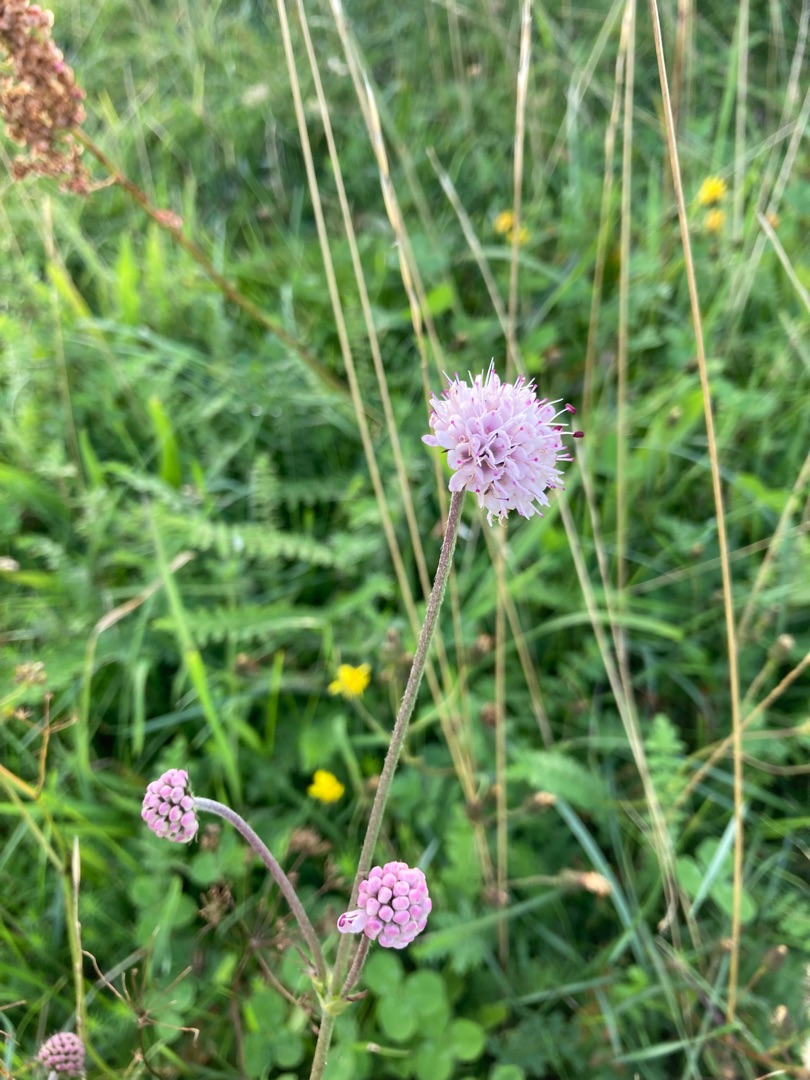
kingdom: Plantae
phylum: Tracheophyta
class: Magnoliopsida
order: Dipsacales
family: Caprifoliaceae
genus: Succisa
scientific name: Succisa pratensis
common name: Djævelsbid
